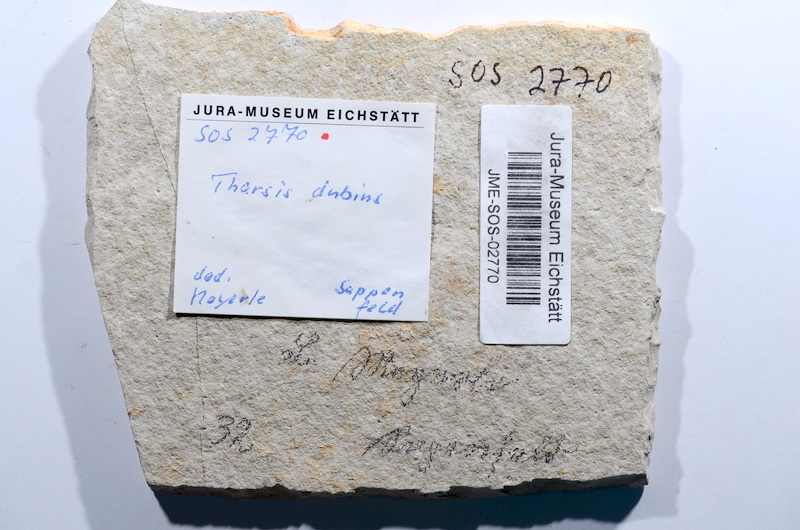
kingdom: Animalia
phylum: Chordata
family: Ascalaboidae
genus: Tharsis
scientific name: Tharsis dubius
